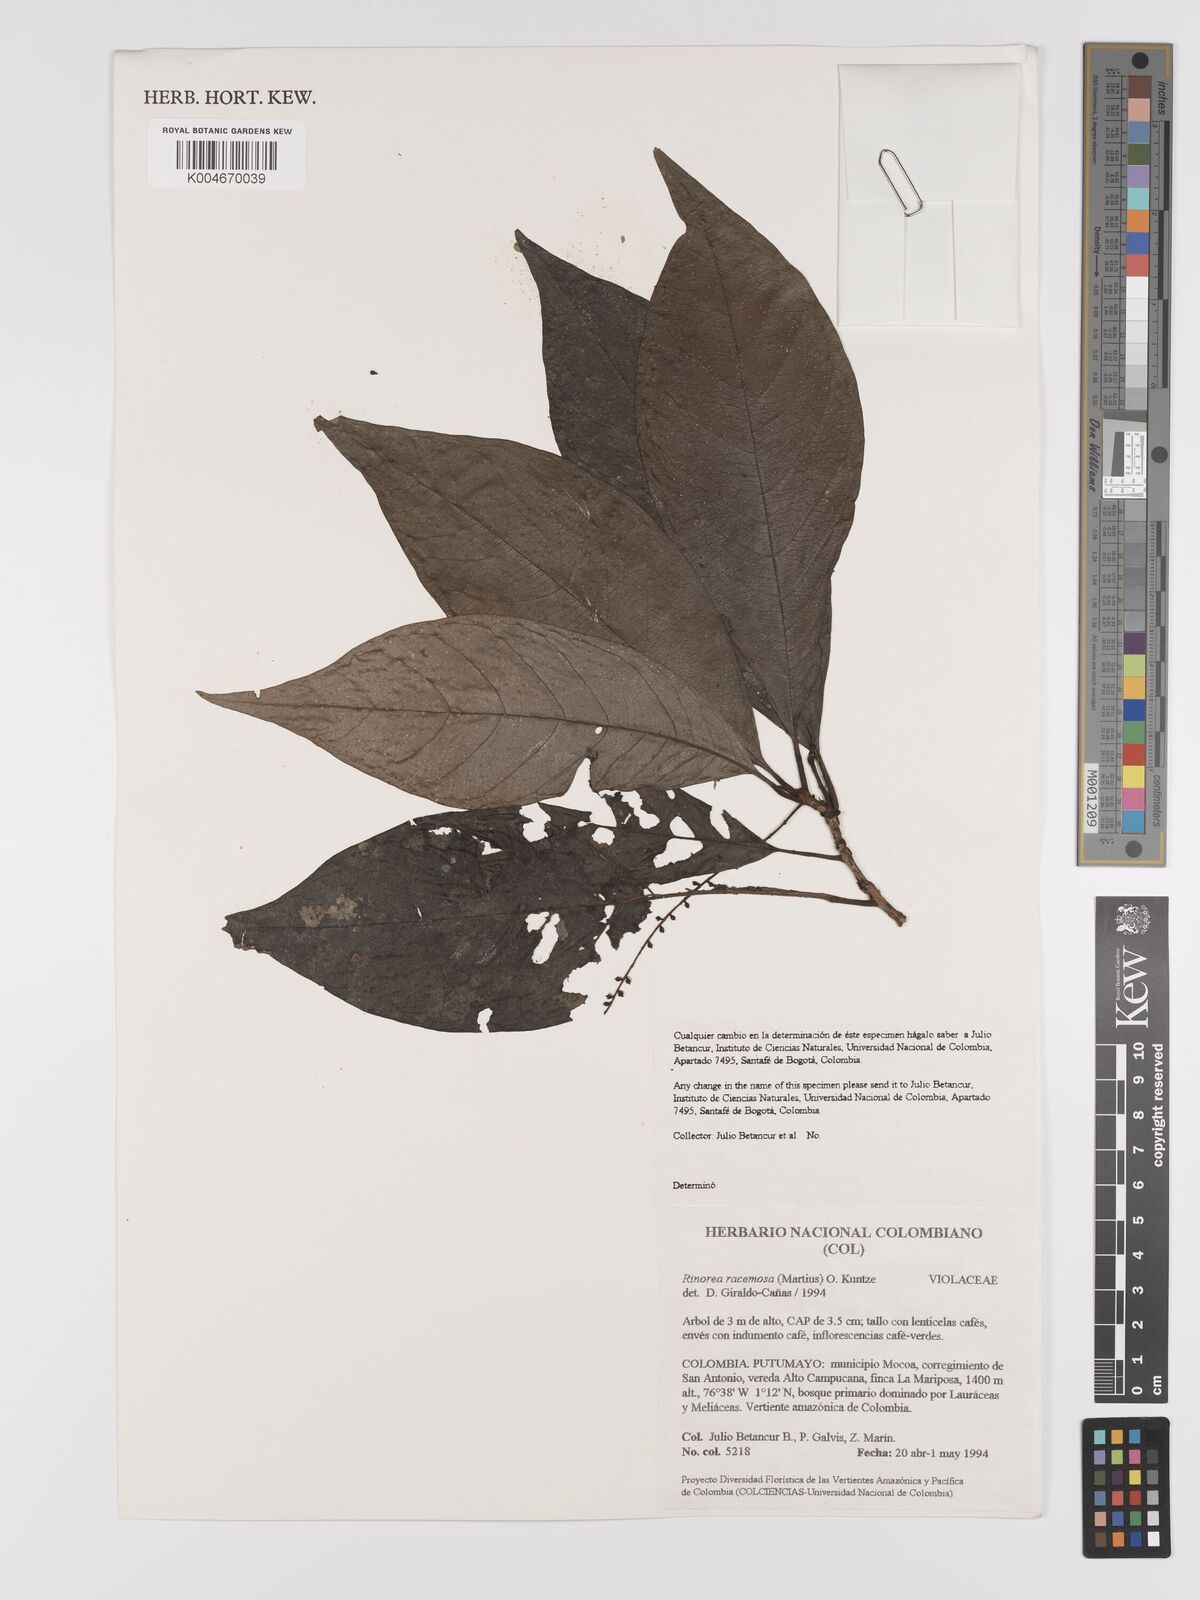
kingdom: Plantae
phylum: Tracheophyta
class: Magnoliopsida
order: Malpighiales
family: Violaceae
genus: Rinorea
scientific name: Rinorea racemosa
